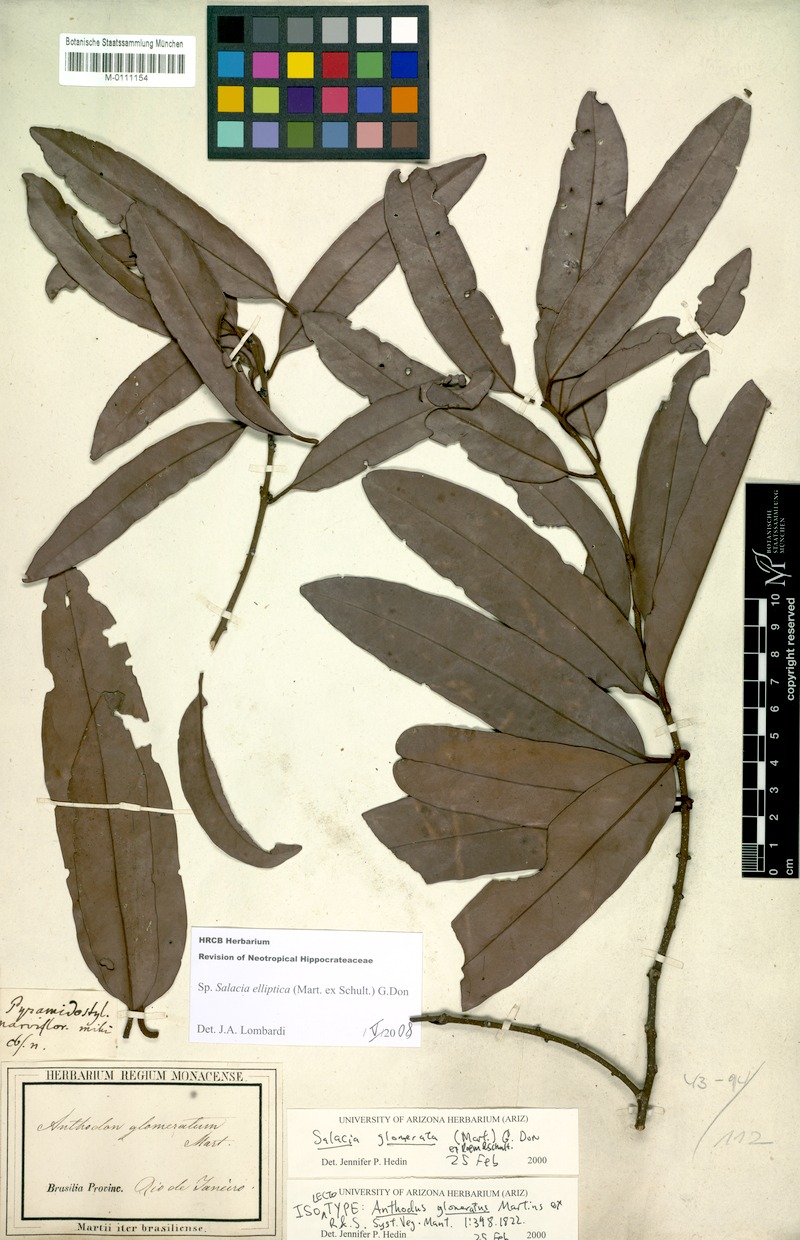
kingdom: Plantae
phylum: Tracheophyta
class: Magnoliopsida
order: Celastrales
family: Celastraceae
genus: Salacia
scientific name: Salacia elliptica
